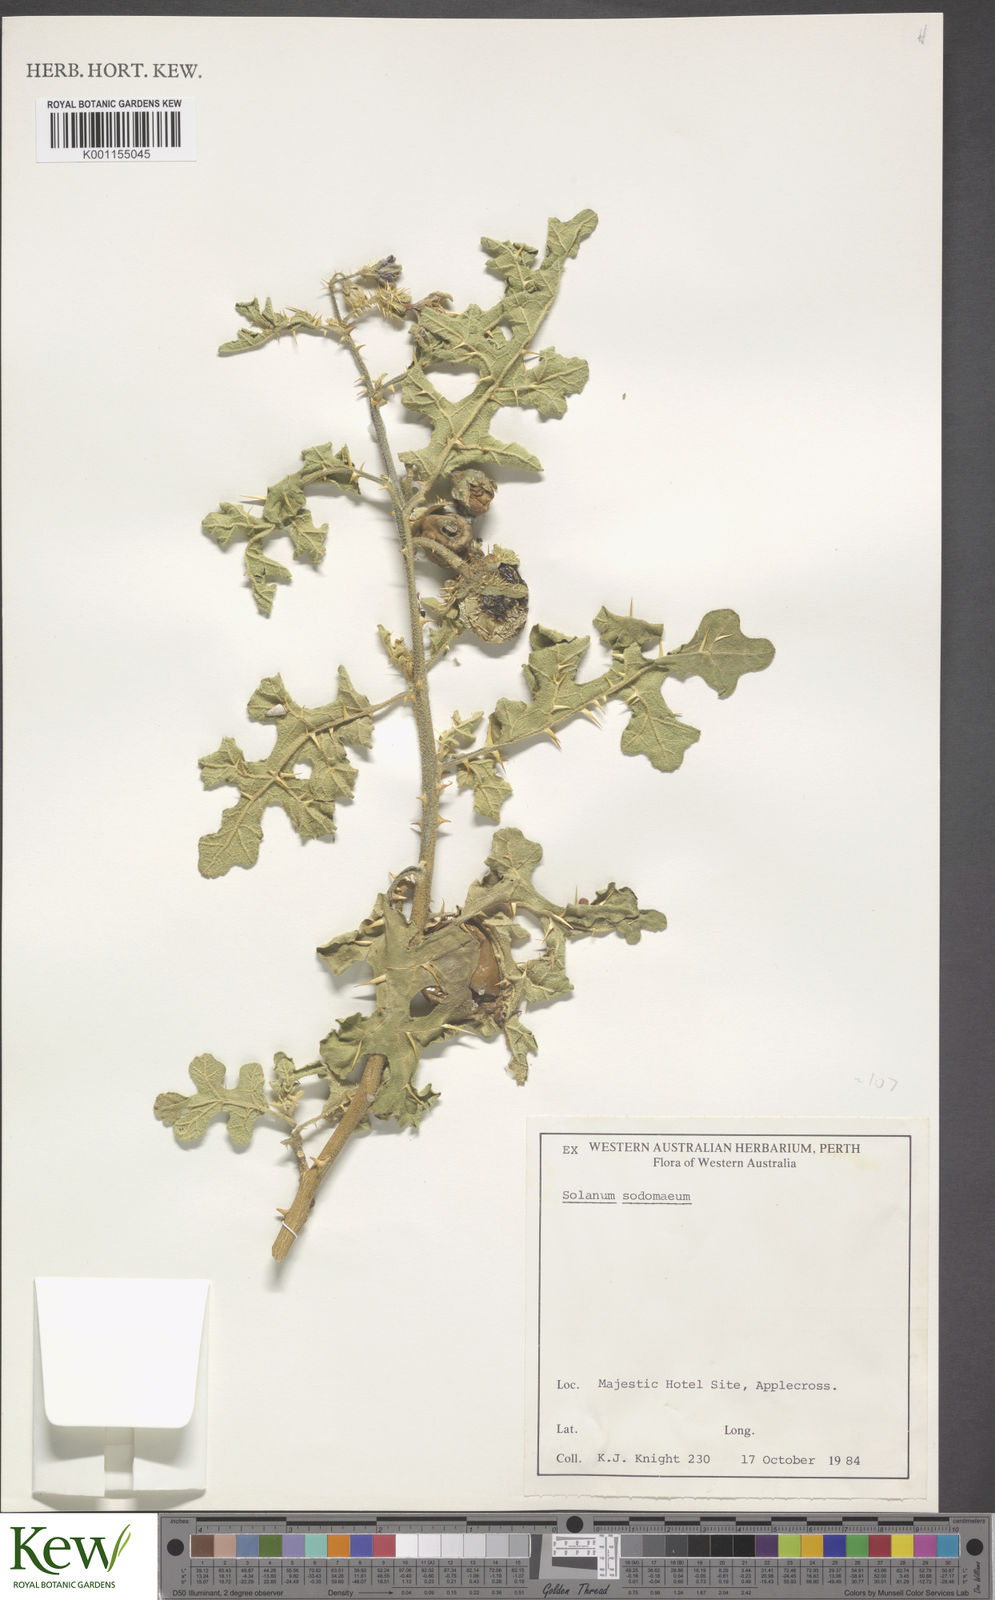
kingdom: Plantae
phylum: Tracheophyta
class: Magnoliopsida
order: Solanales
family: Solanaceae
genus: Solanum
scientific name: Solanum anguivi
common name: Forest bitterberry
